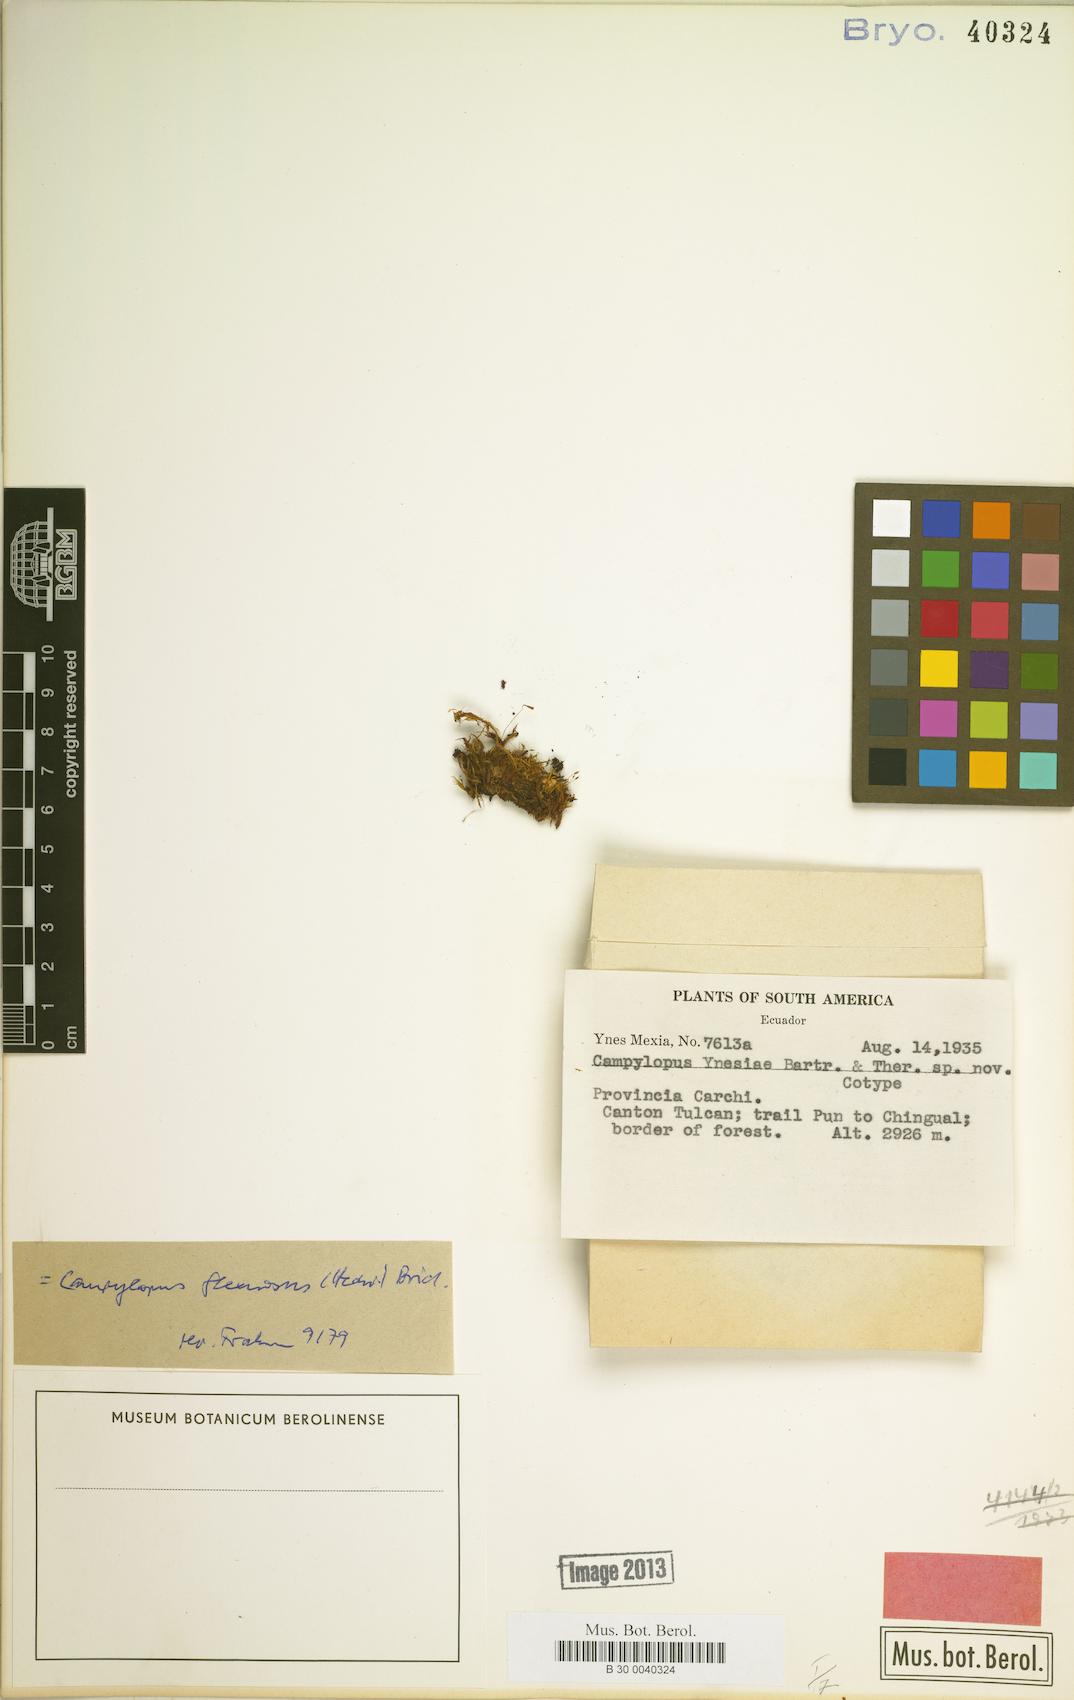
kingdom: Plantae
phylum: Bryophyta
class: Bryopsida
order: Dicranales
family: Leucobryaceae
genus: Campylopus
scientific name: Campylopus flexuosus
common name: Rusty swan-neck moss
